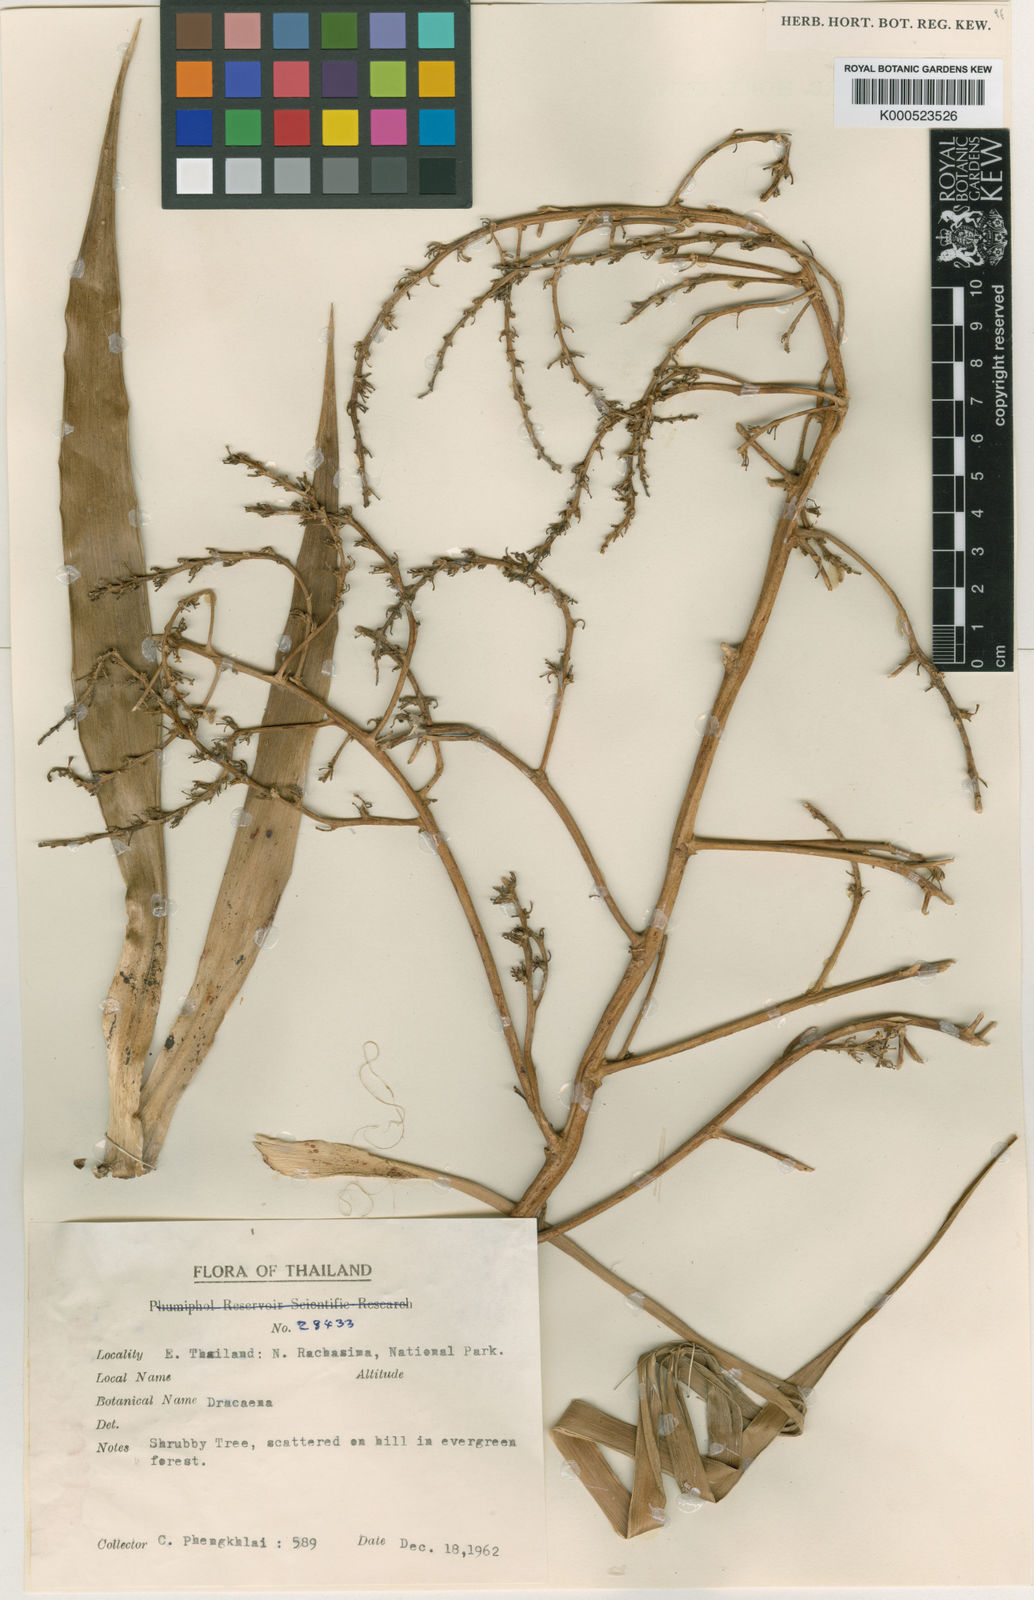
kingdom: Plantae
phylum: Tracheophyta
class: Liliopsida
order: Asparagales
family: Asparagaceae
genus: Dracaena
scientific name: Dracaena
